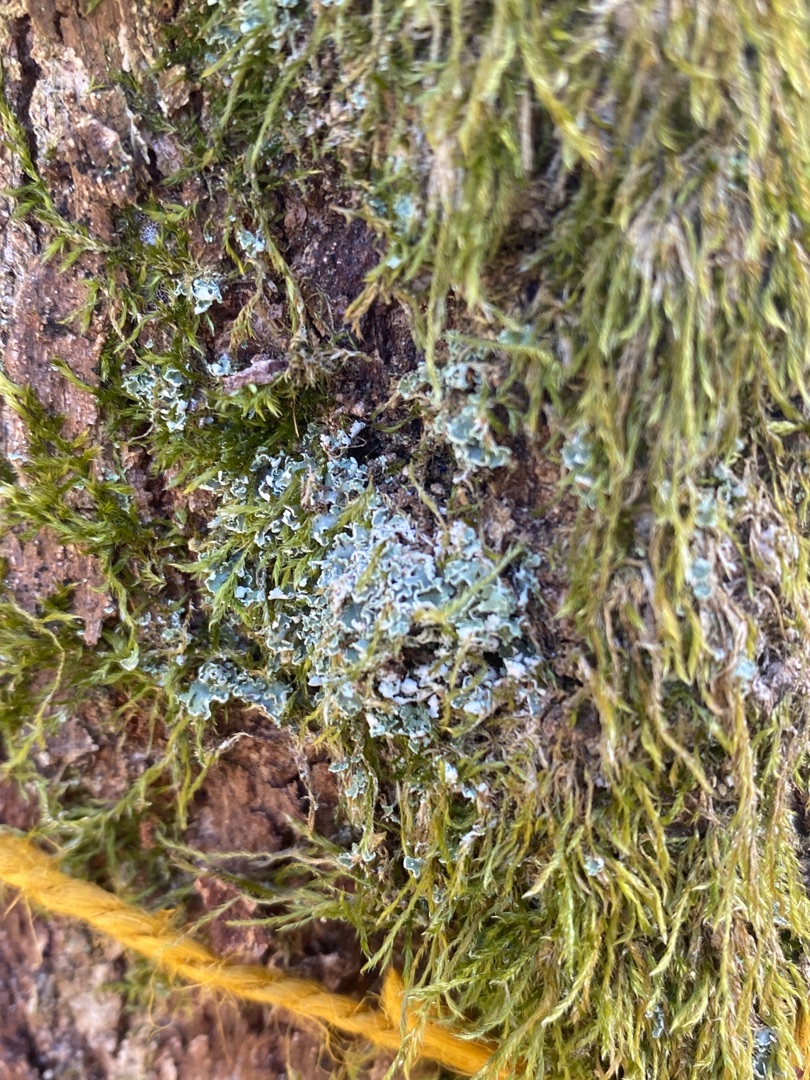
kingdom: Fungi
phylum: Ascomycota
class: Lecanoromycetes
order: Lecanorales
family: Cladoniaceae
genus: Cladonia
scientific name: Cladonia
